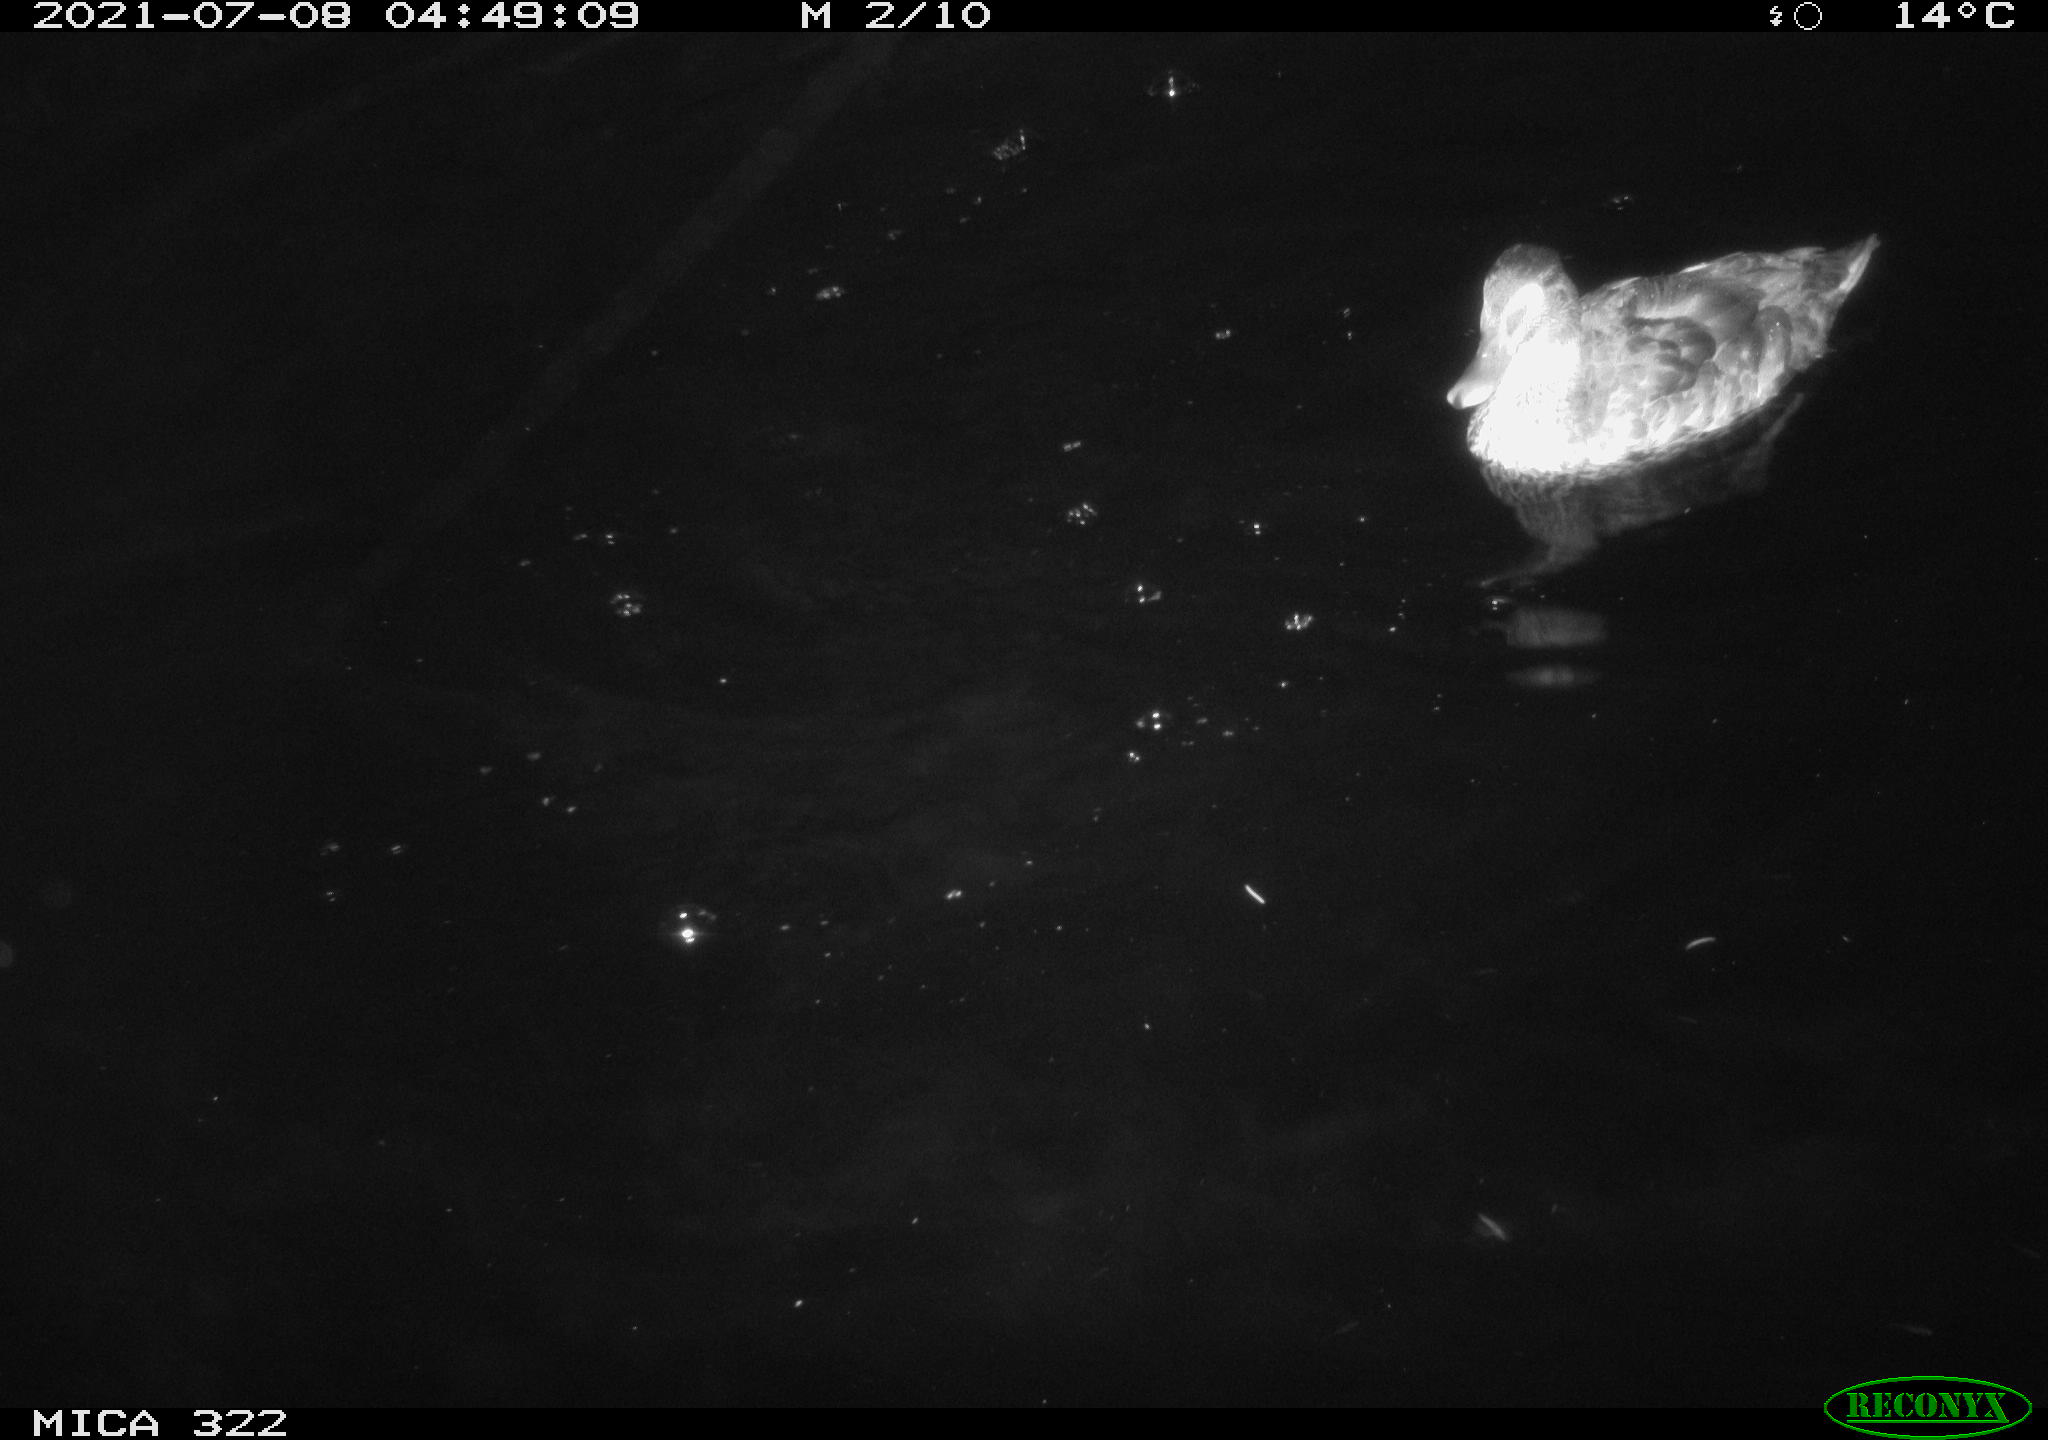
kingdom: Animalia
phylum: Chordata
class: Aves
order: Anseriformes
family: Anatidae
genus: Mareca
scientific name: Mareca strepera
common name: Gadwall
